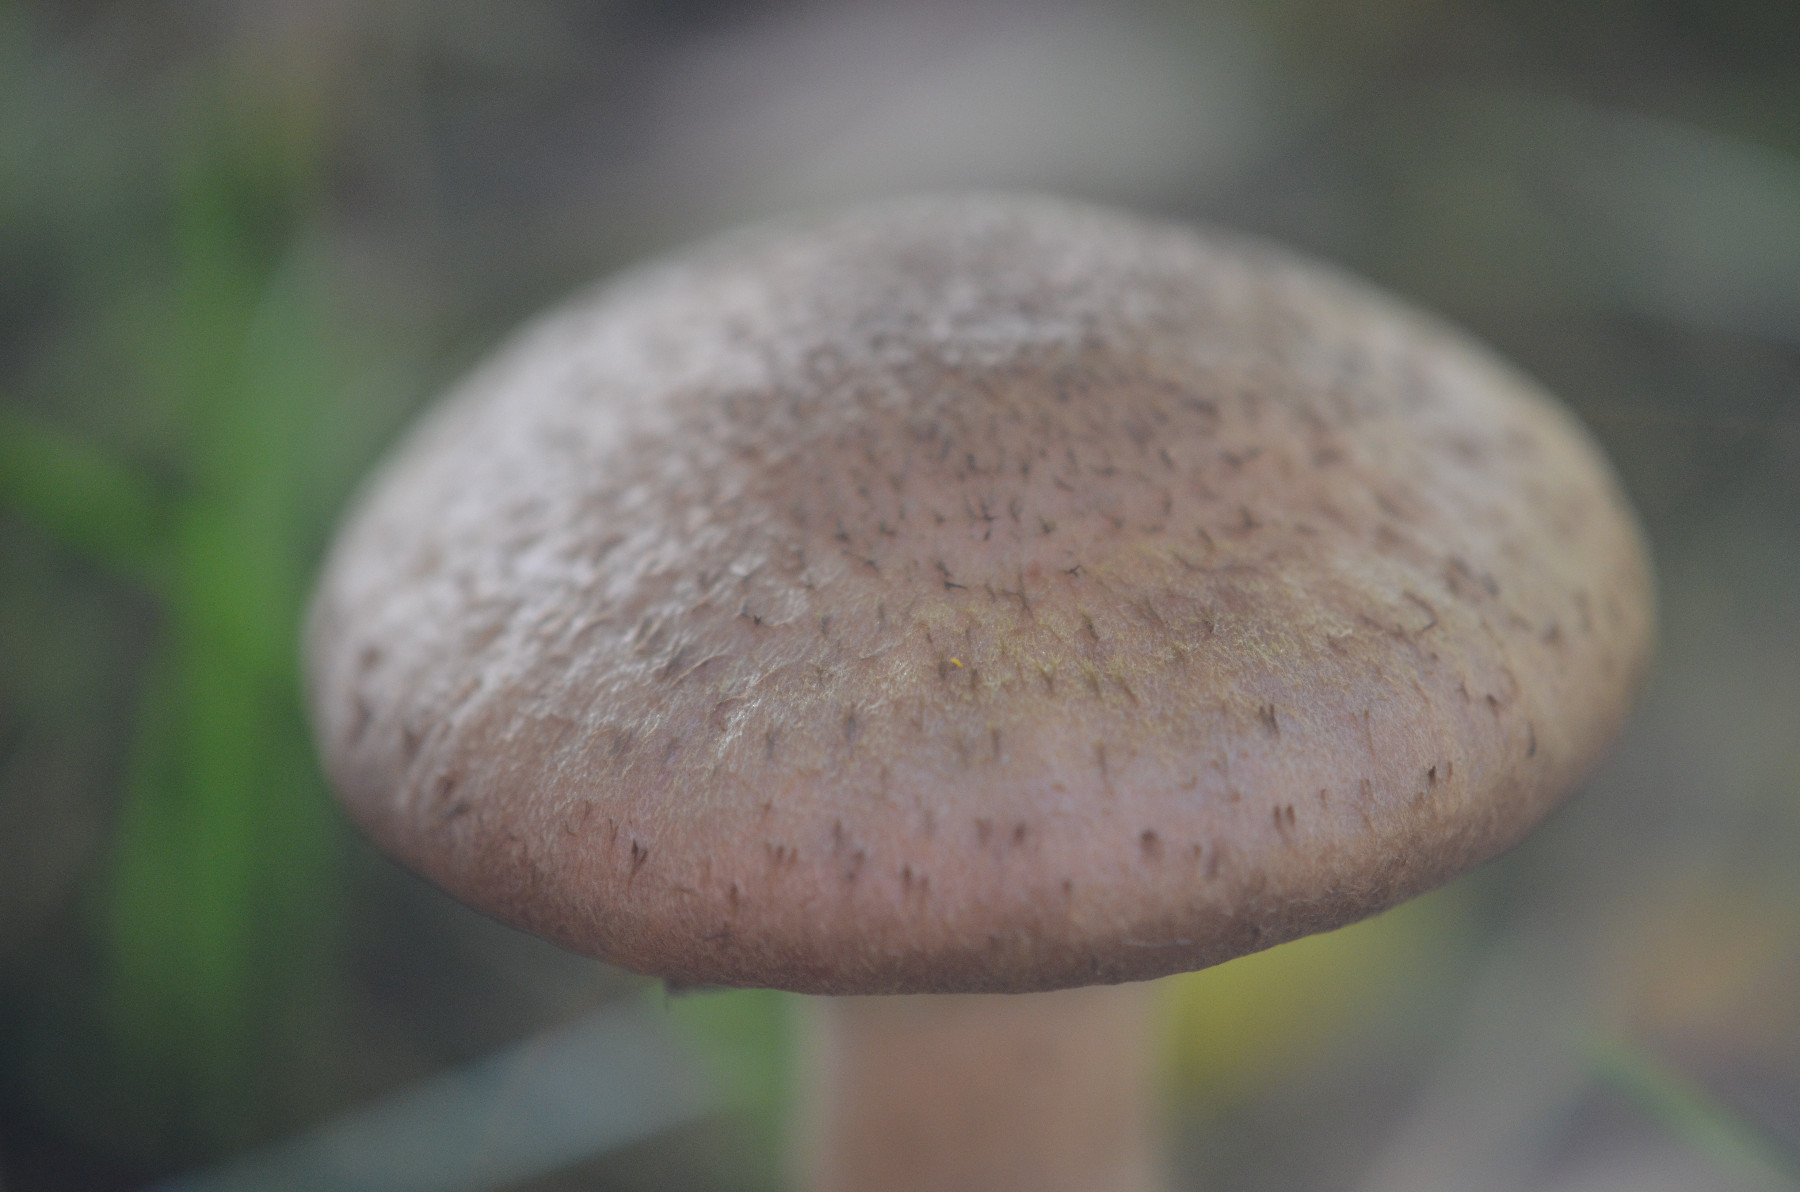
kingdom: Fungi
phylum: Basidiomycota
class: Agaricomycetes
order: Agaricales
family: Physalacriaceae
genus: Armillaria
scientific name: Armillaria lutea
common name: køllestokket honningsvamp
